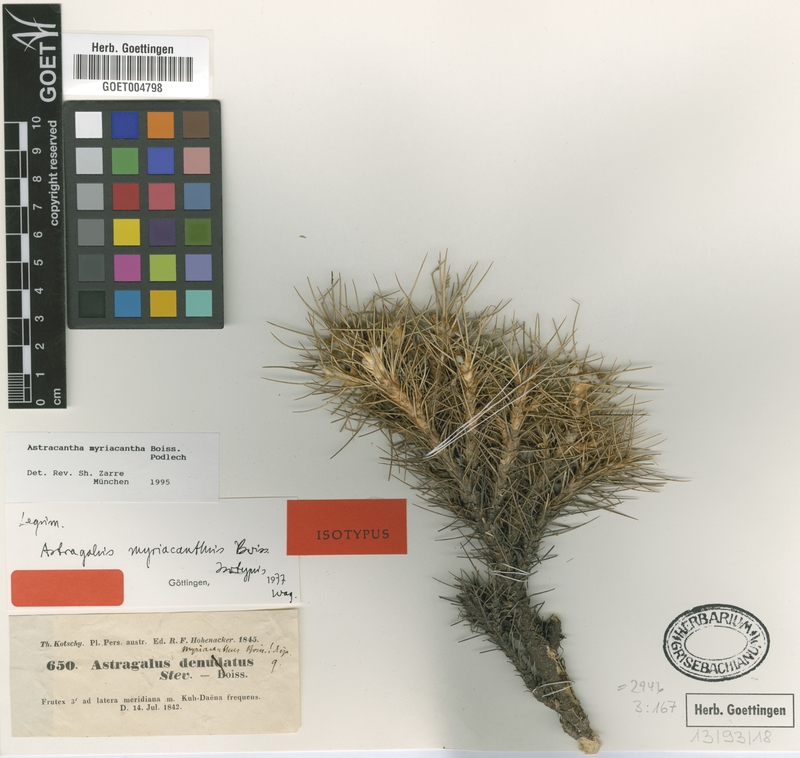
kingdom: Plantae
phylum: Tracheophyta
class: Magnoliopsida
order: Fabales
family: Fabaceae
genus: Astragalus
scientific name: Astragalus myriacanthus
